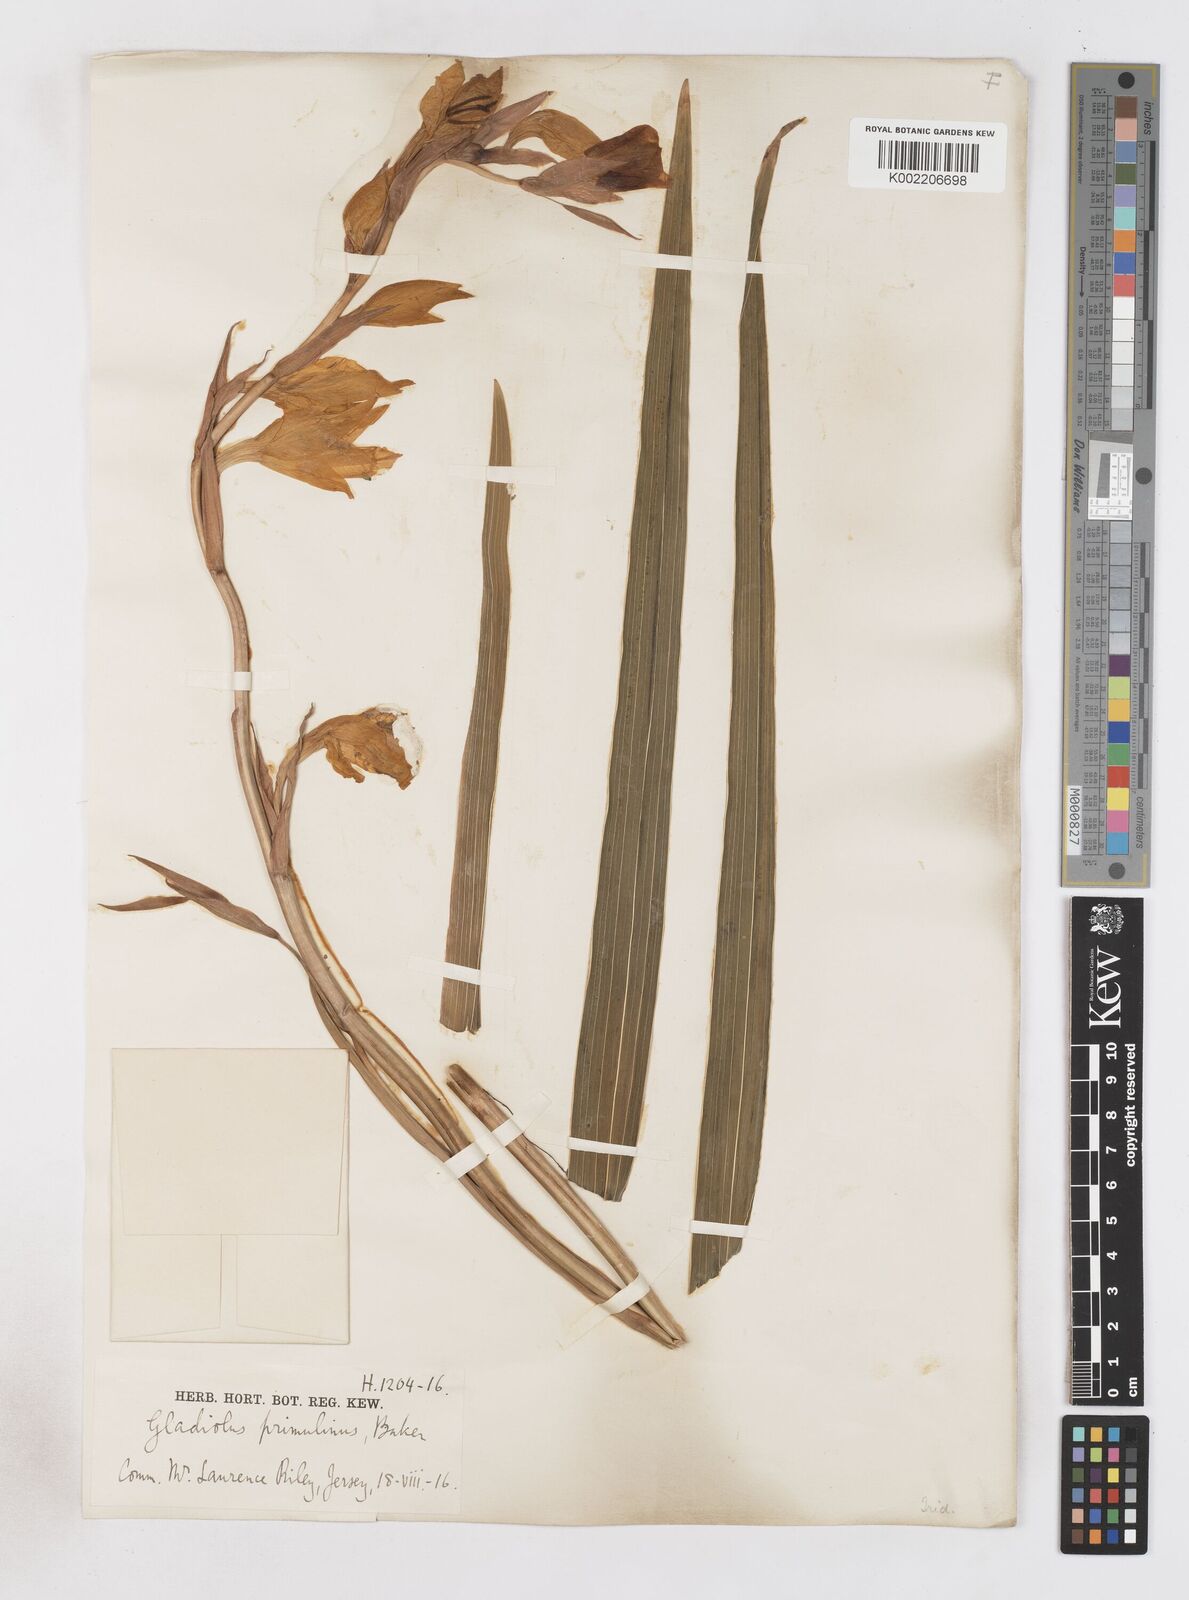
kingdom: Plantae
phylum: Tracheophyta
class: Liliopsida
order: Asparagales
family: Iridaceae
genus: Gladiolus
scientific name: Gladiolus dalenii
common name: Cornflag
